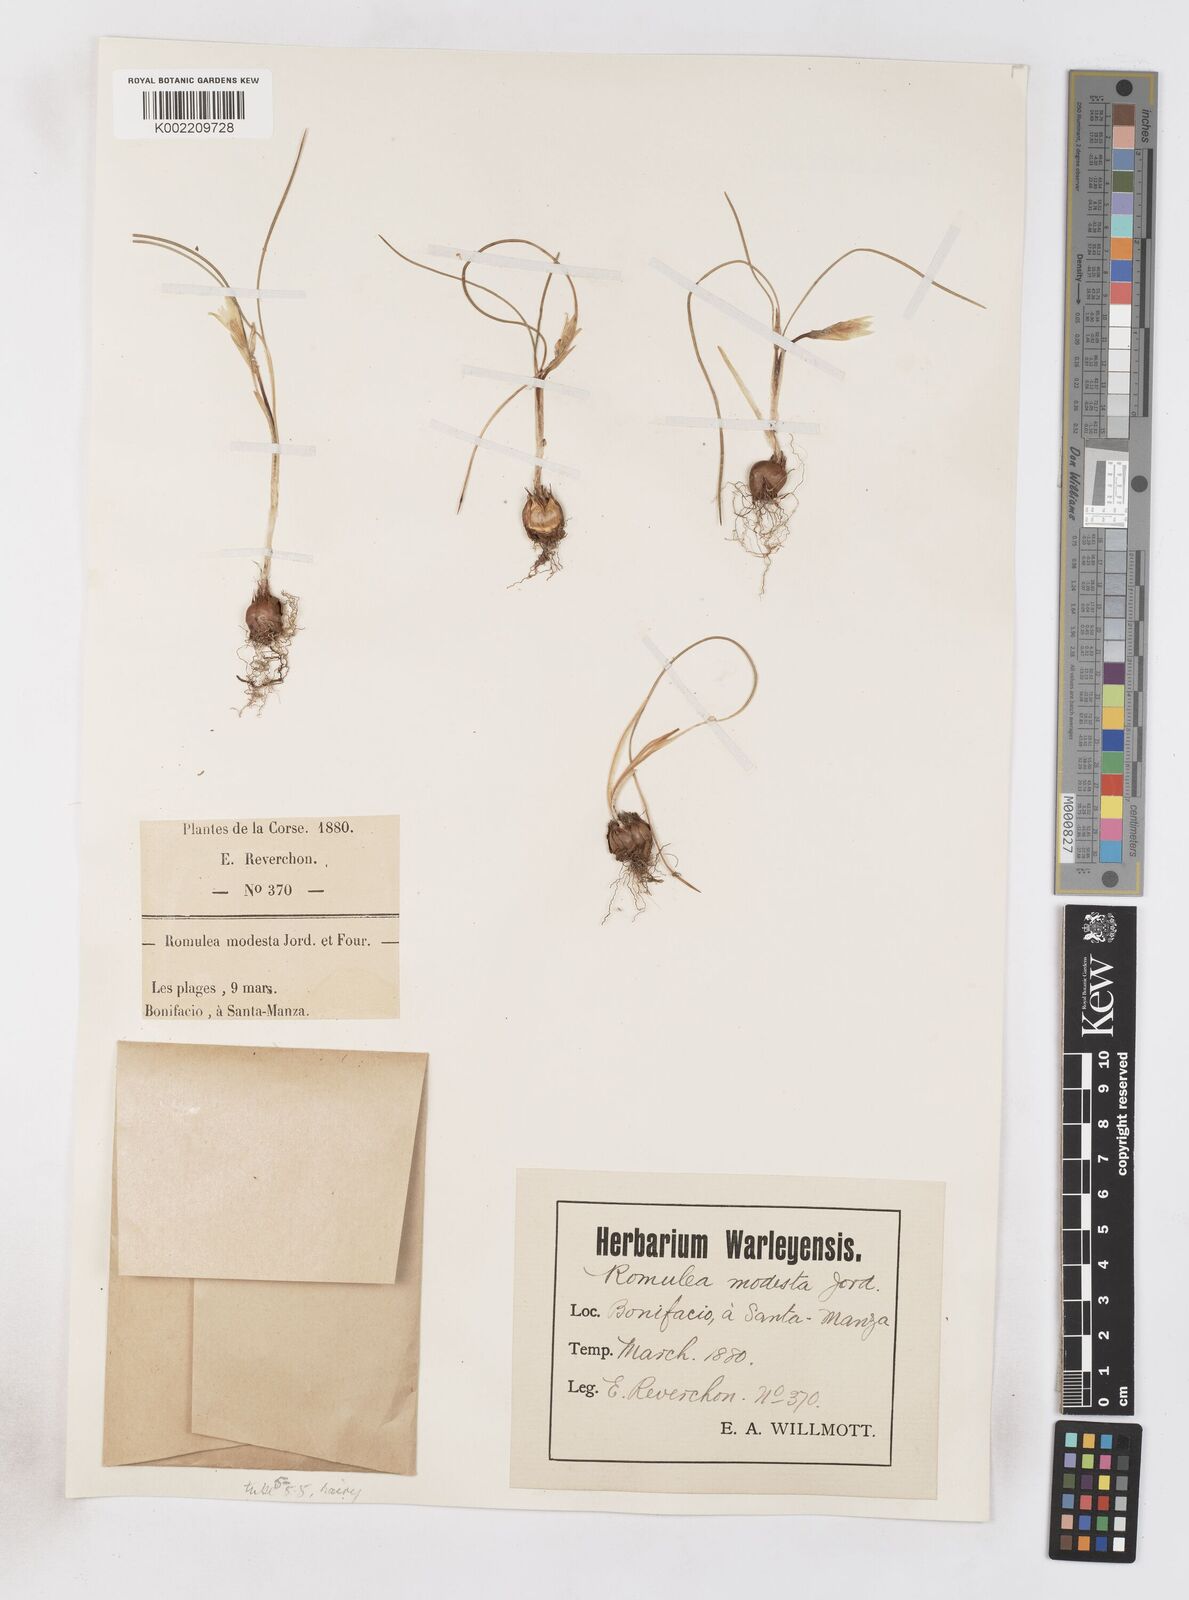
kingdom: Plantae
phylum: Tracheophyta
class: Liliopsida
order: Asparagales
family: Iridaceae
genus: Romulea
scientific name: Romulea columnae
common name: Sand-crocus
